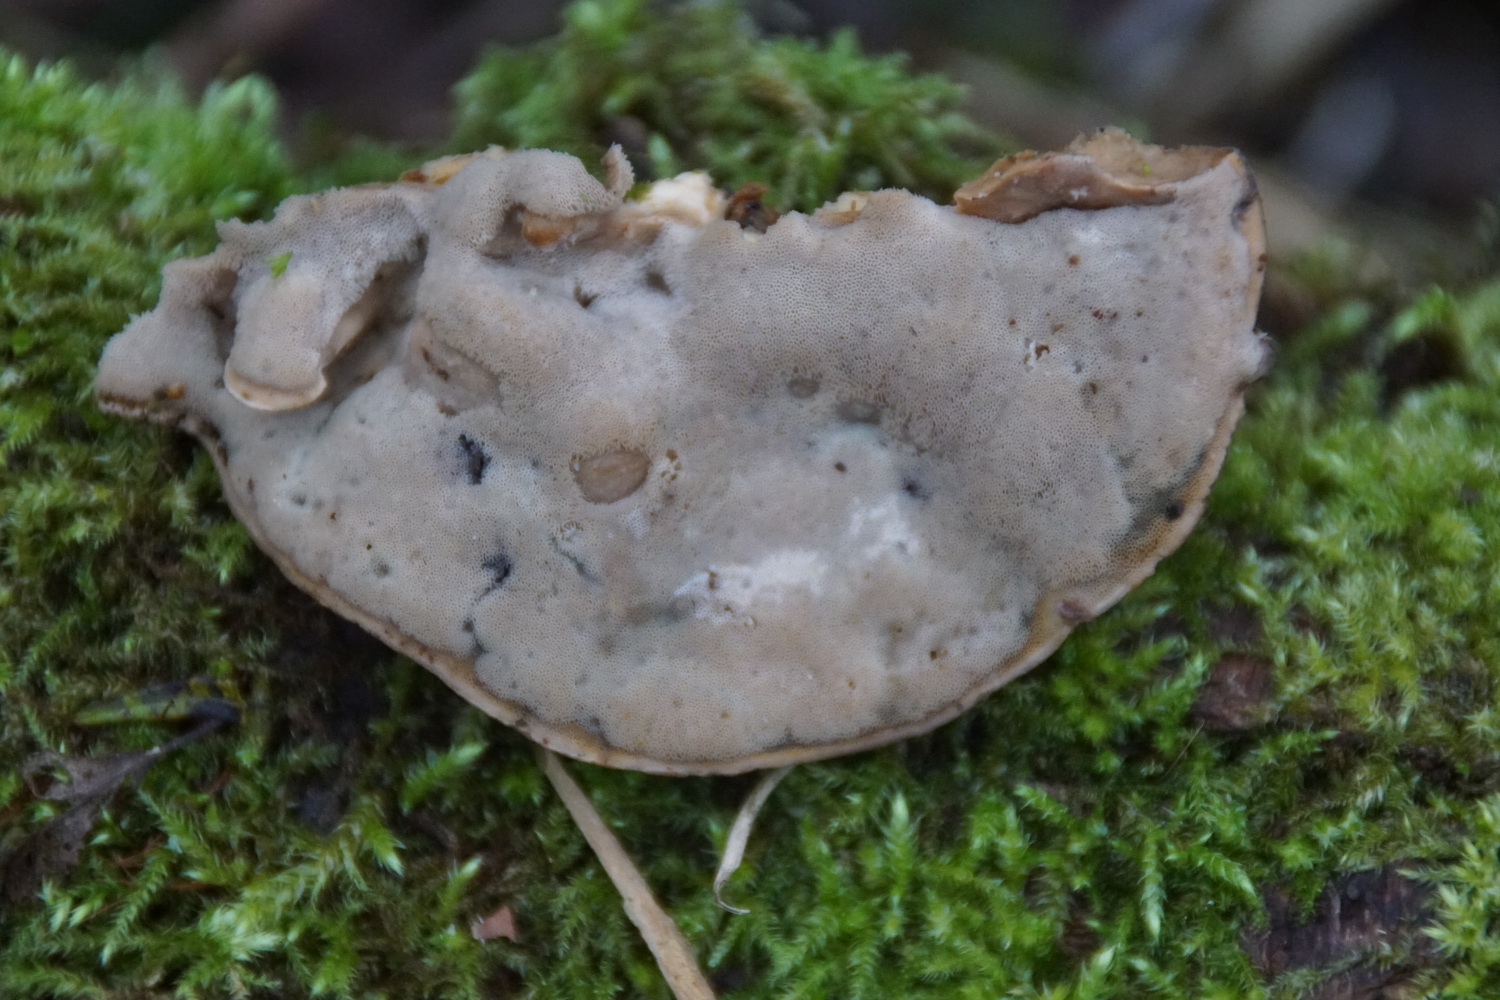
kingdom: Fungi
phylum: Basidiomycota
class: Agaricomycetes
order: Polyporales
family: Phanerochaetaceae
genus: Bjerkandera
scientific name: Bjerkandera fumosa
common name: grågul sodporesvamp
